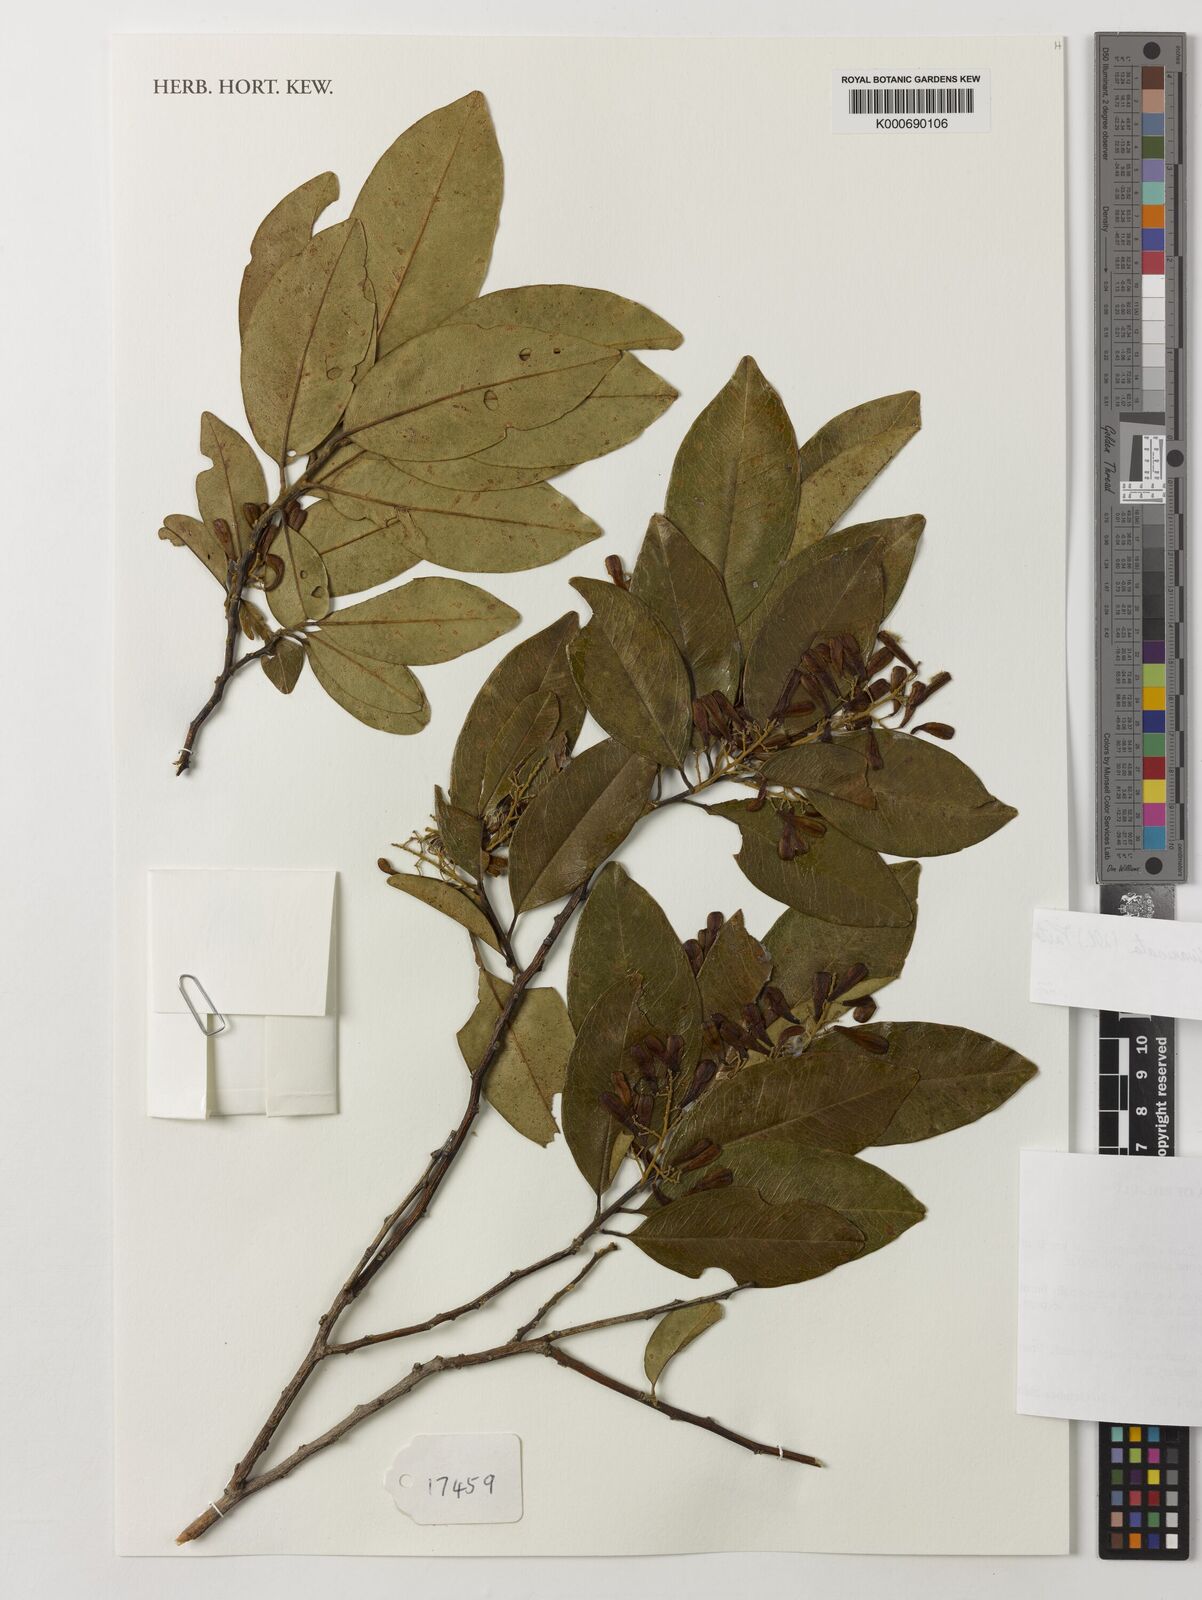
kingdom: Plantae
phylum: Tracheophyta
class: Magnoliopsida
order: Fabales
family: Polygalaceae
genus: Bredemeyera
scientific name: Bredemeyera divaricata
